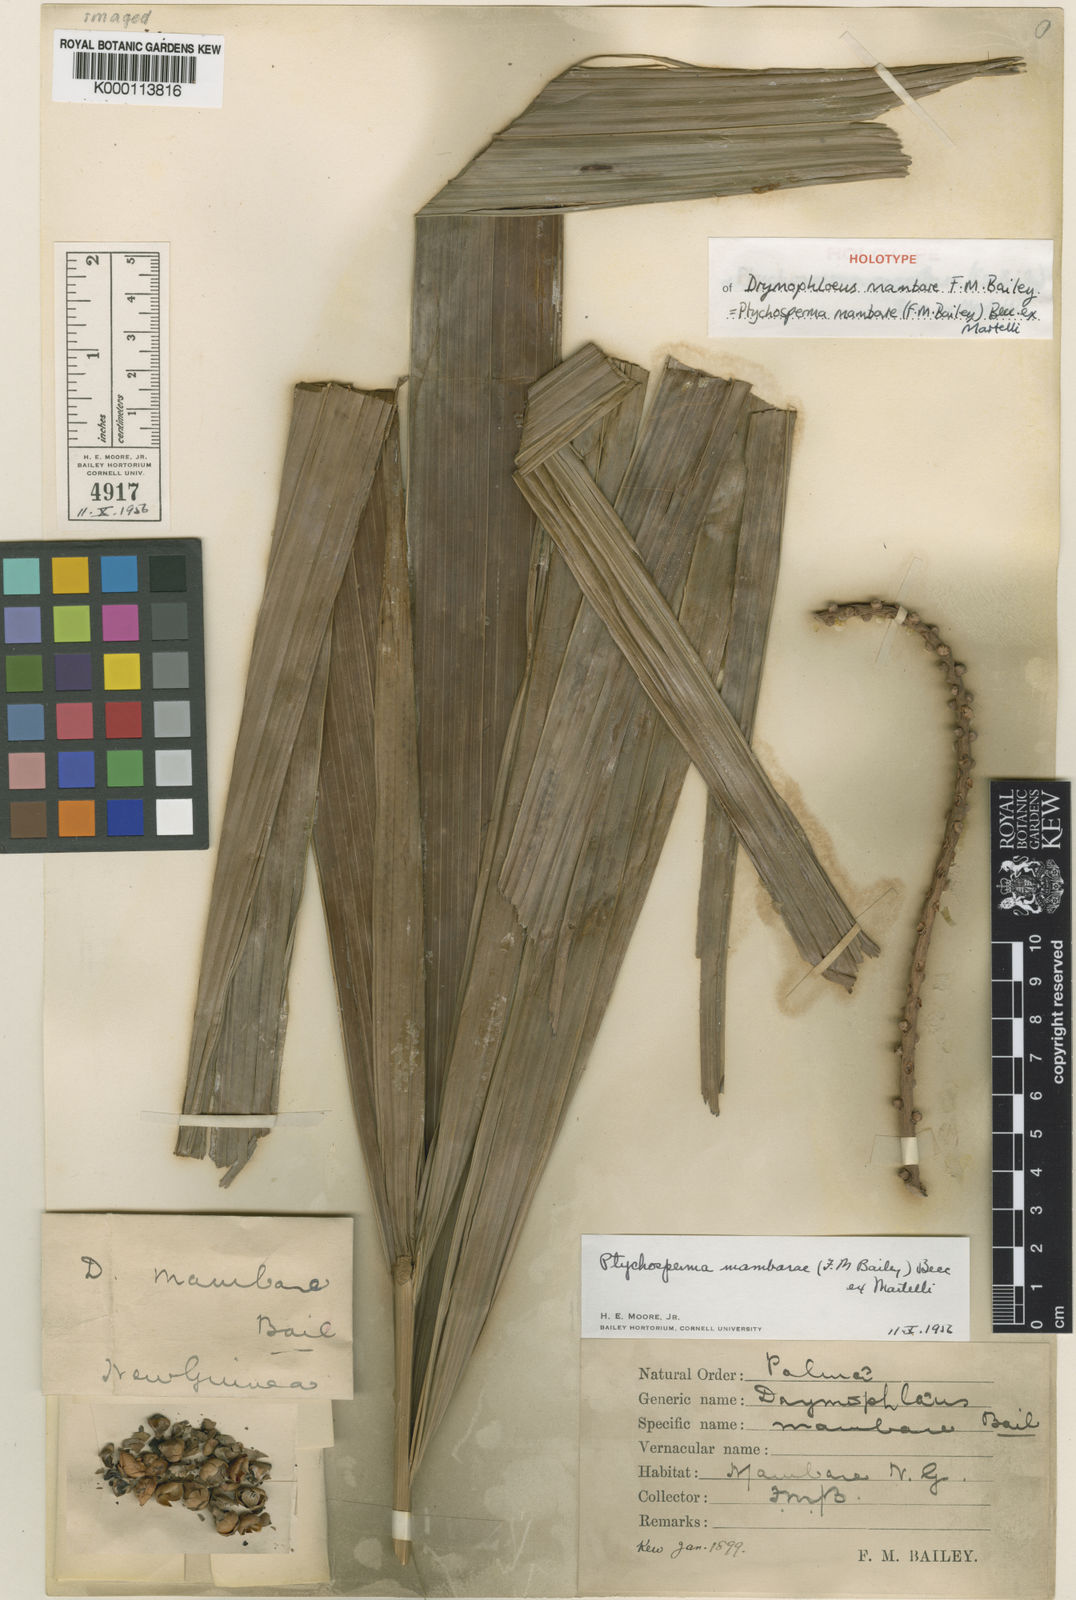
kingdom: Plantae
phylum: Tracheophyta
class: Liliopsida
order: Arecales
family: Arecaceae
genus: Ptychosperma
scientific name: Ptychosperma mambare
